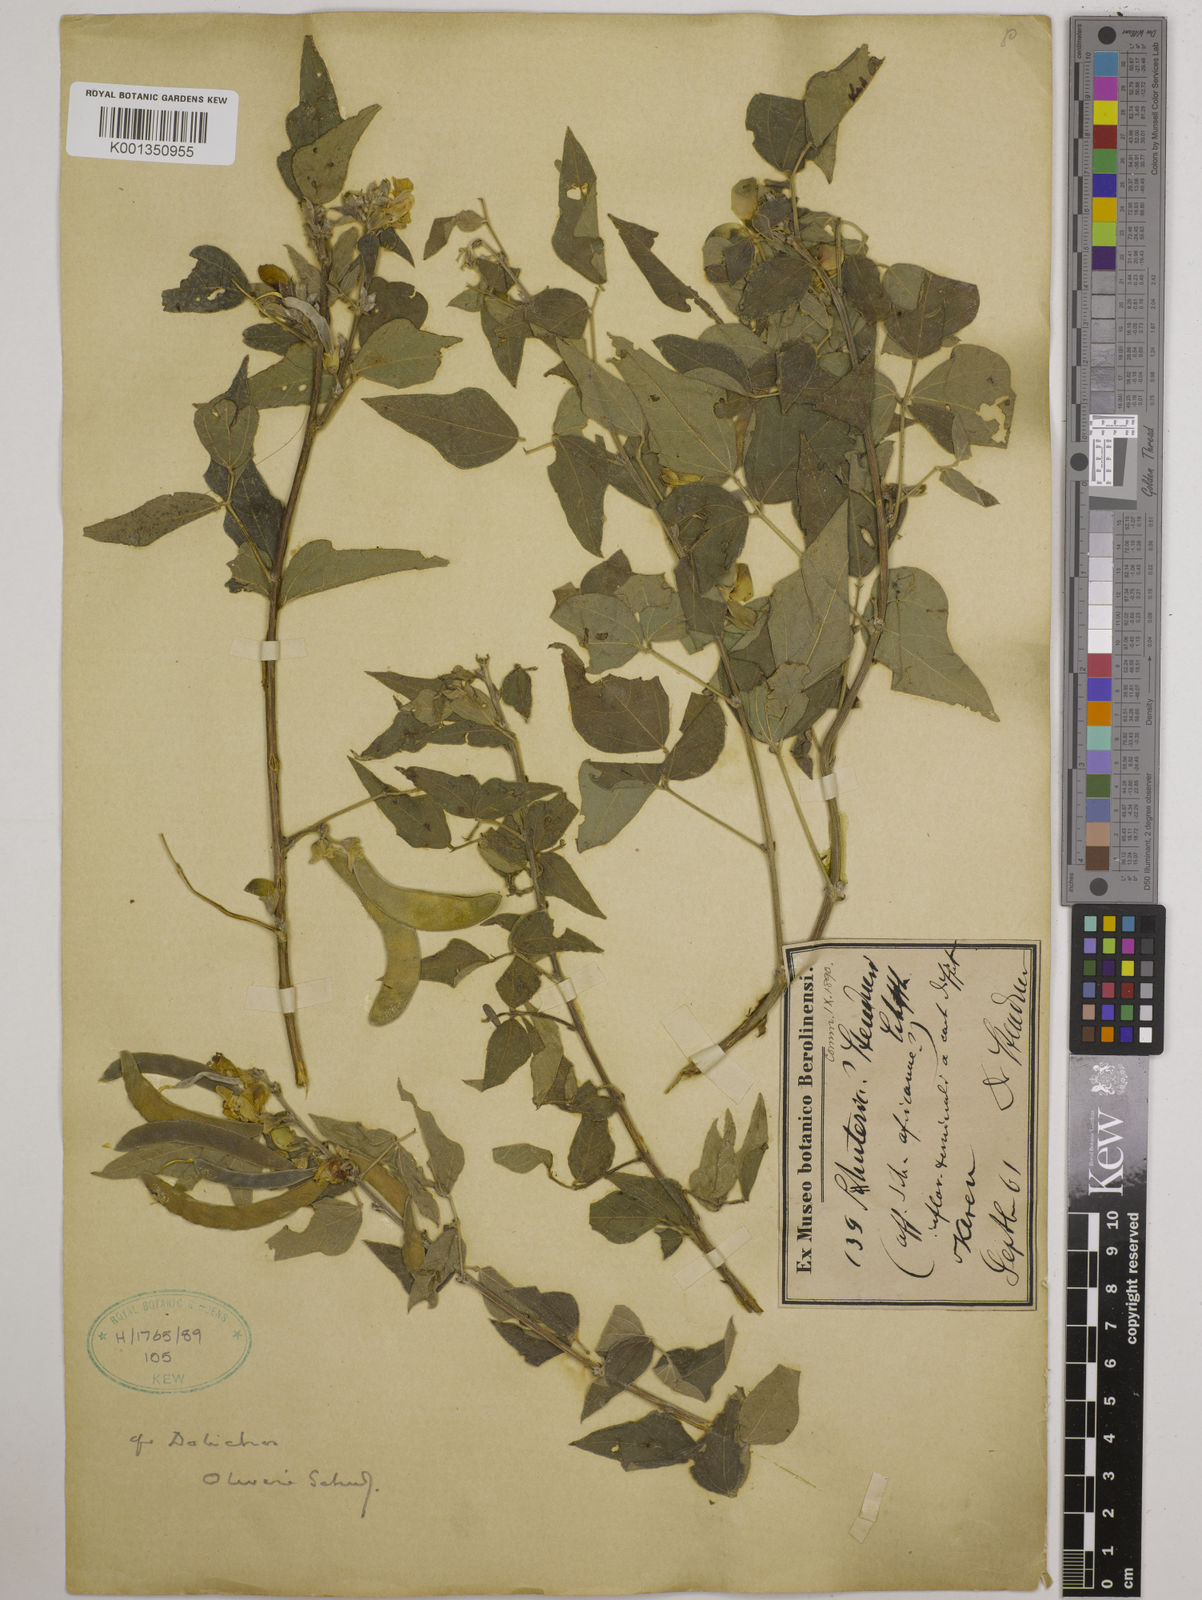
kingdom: Plantae
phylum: Tracheophyta
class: Magnoliopsida
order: Fabales
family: Fabaceae
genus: Dolichos
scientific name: Dolichos
